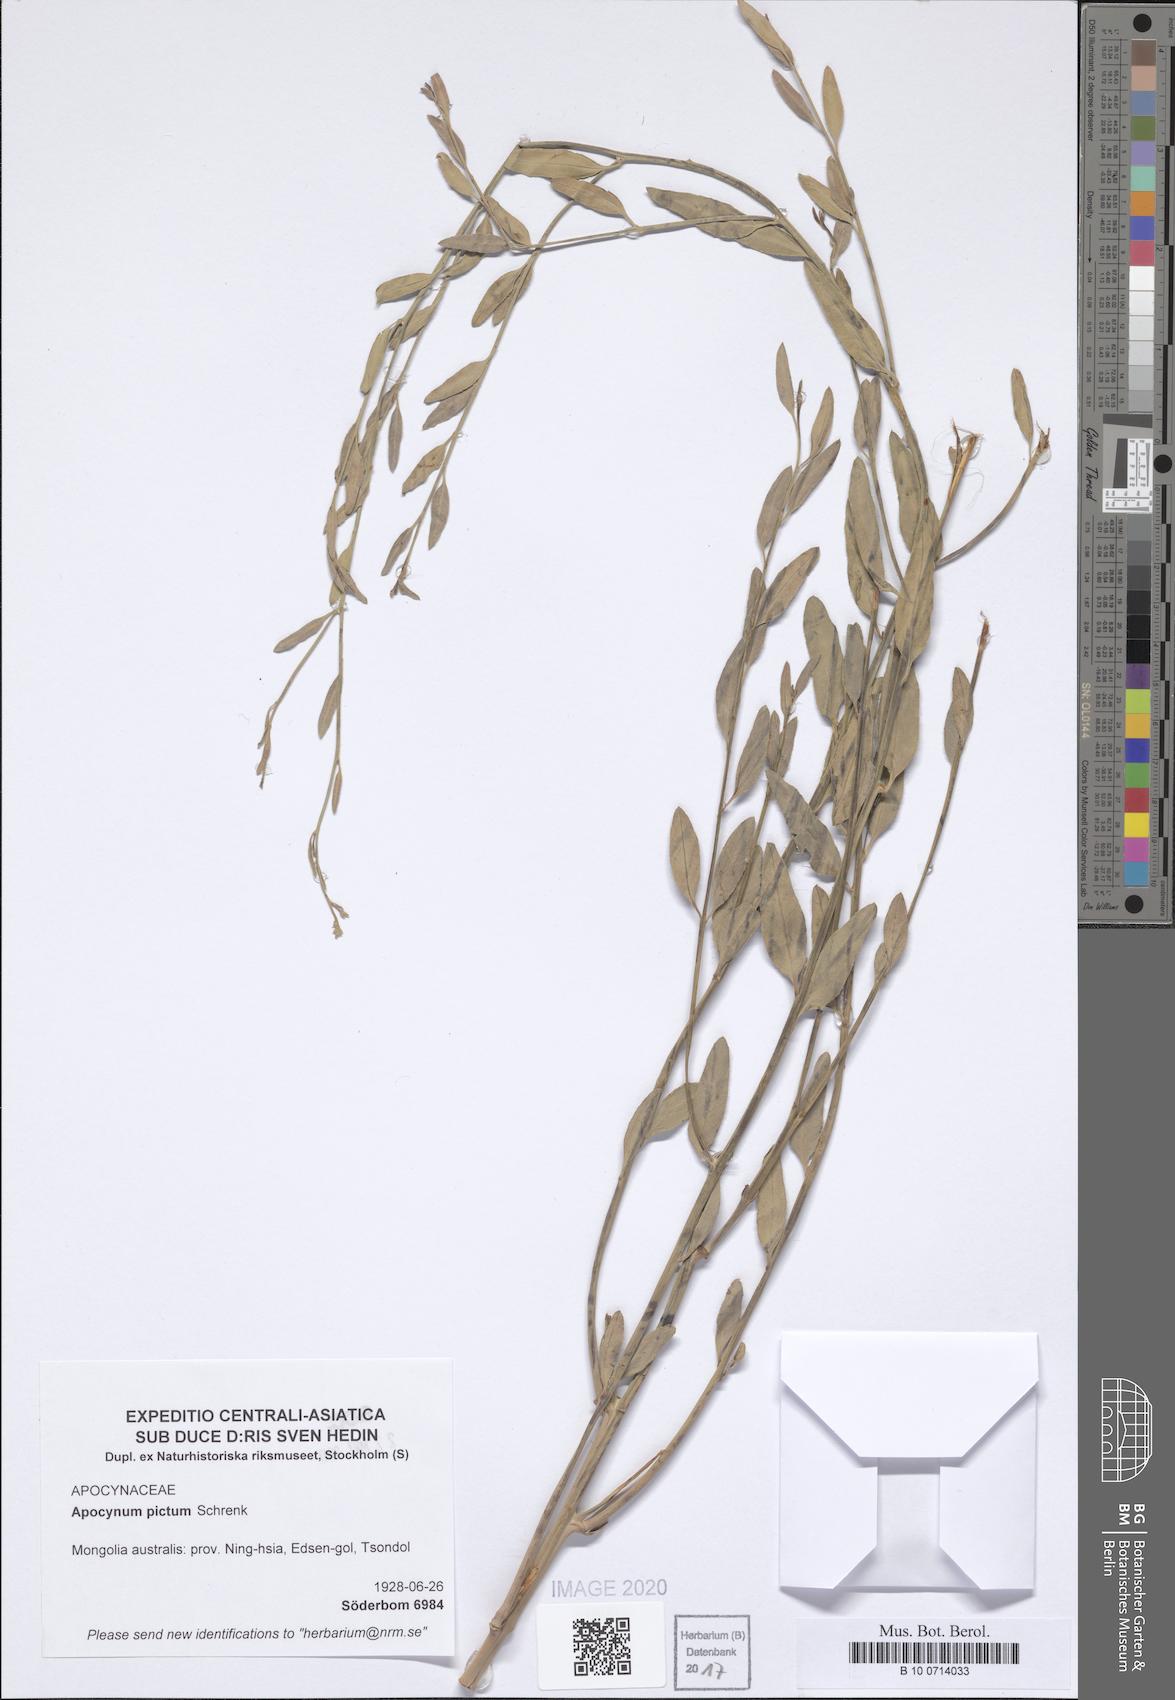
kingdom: Plantae
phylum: Tracheophyta
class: Magnoliopsida
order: Gentianales
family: Apocynaceae
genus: Poacynum
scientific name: Poacynum pictum
